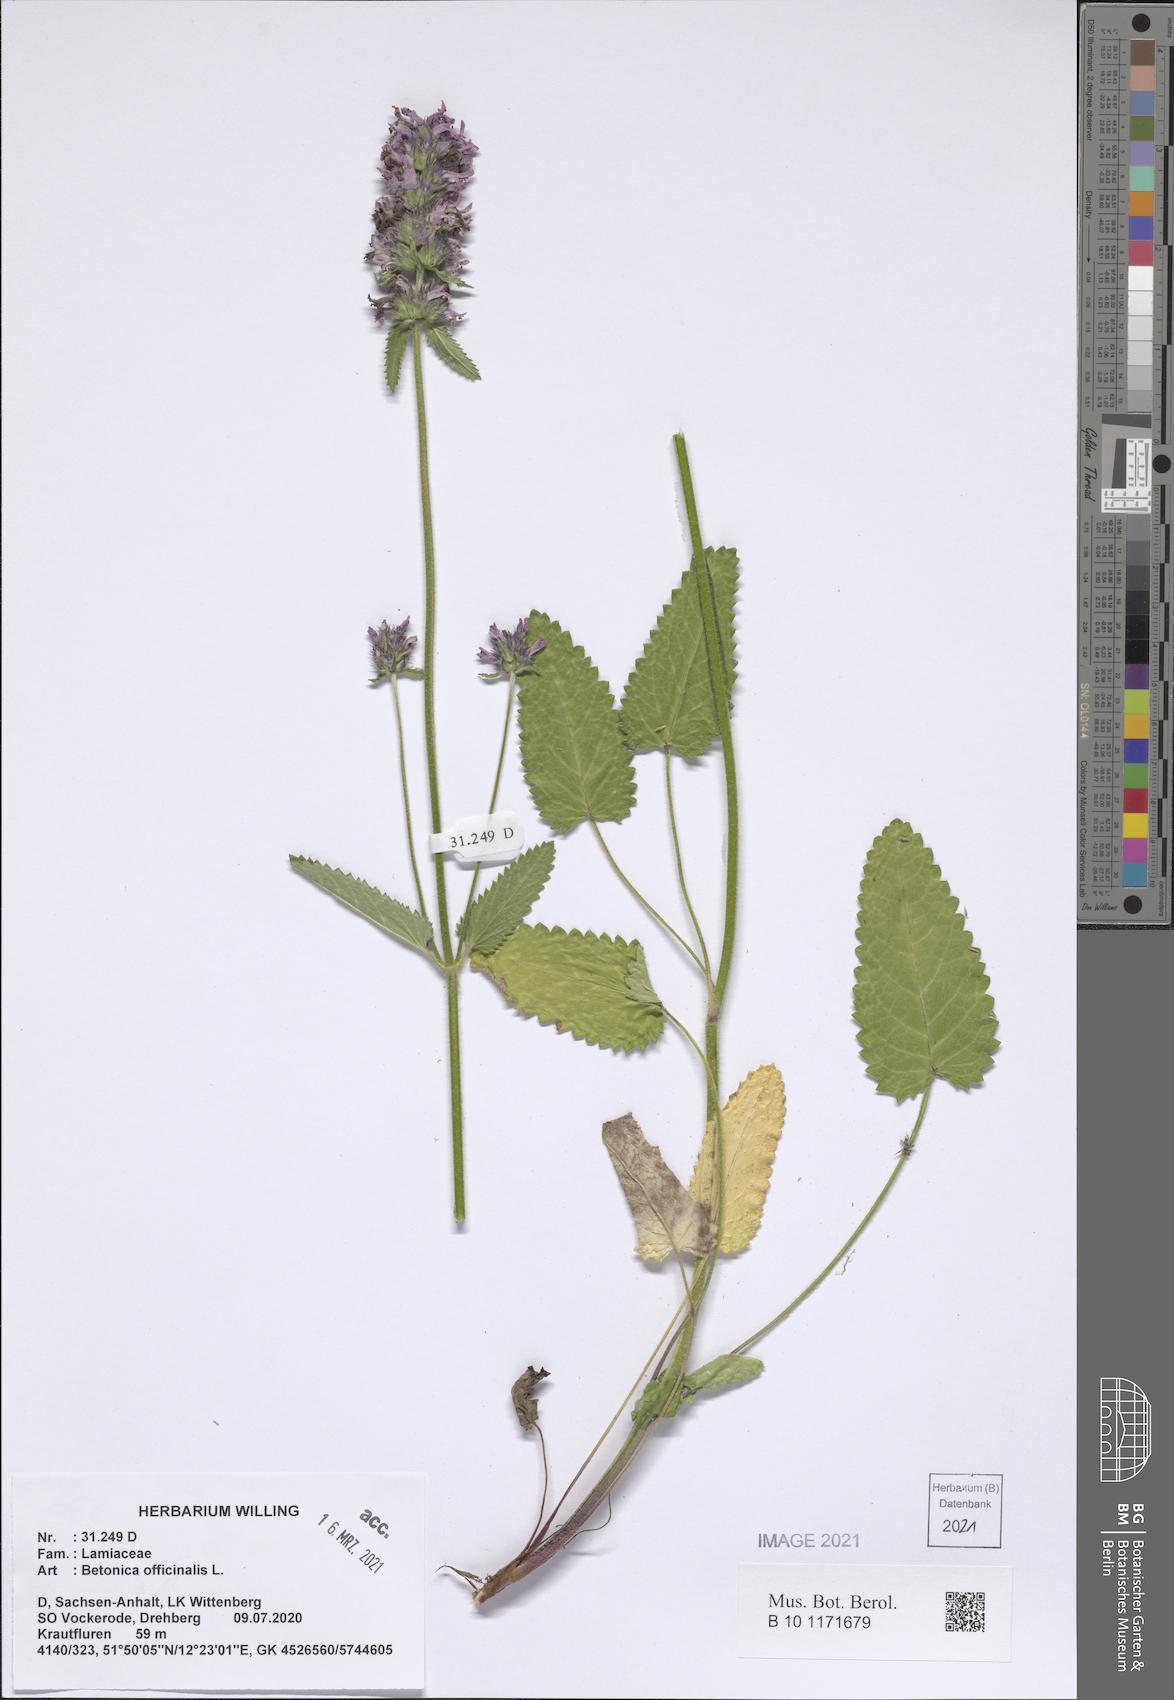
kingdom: Plantae
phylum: Tracheophyta
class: Magnoliopsida
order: Lamiales
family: Lamiaceae
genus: Betonica
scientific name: Betonica officinalis
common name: Bishop's-wort
